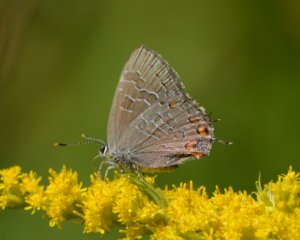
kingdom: Animalia
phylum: Arthropoda
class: Insecta
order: Lepidoptera
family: Lycaenidae
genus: Satyrium
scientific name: Satyrium liparops
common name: Striped Hairstreak
